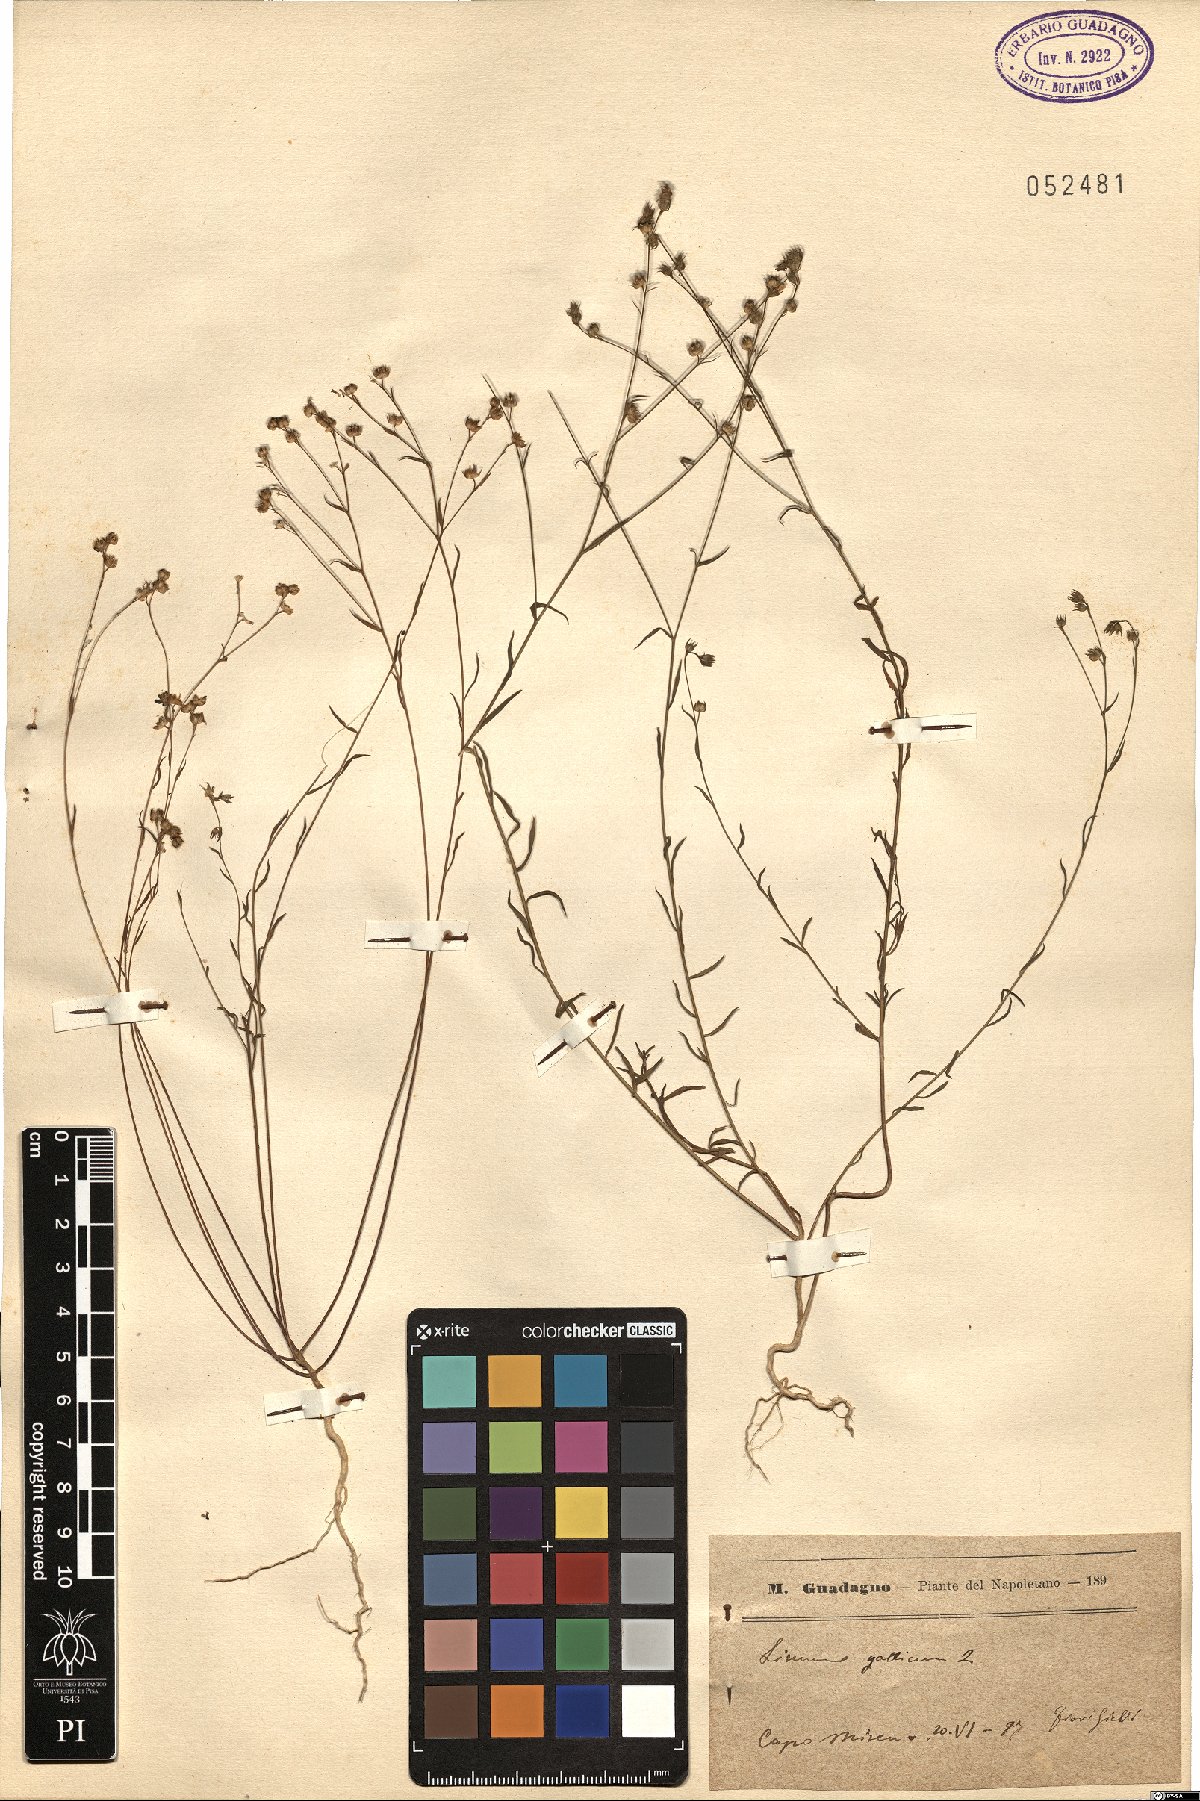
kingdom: Plantae
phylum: Tracheophyta
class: Magnoliopsida
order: Malpighiales
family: Linaceae
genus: Linum
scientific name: Linum trigynum
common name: French flax
